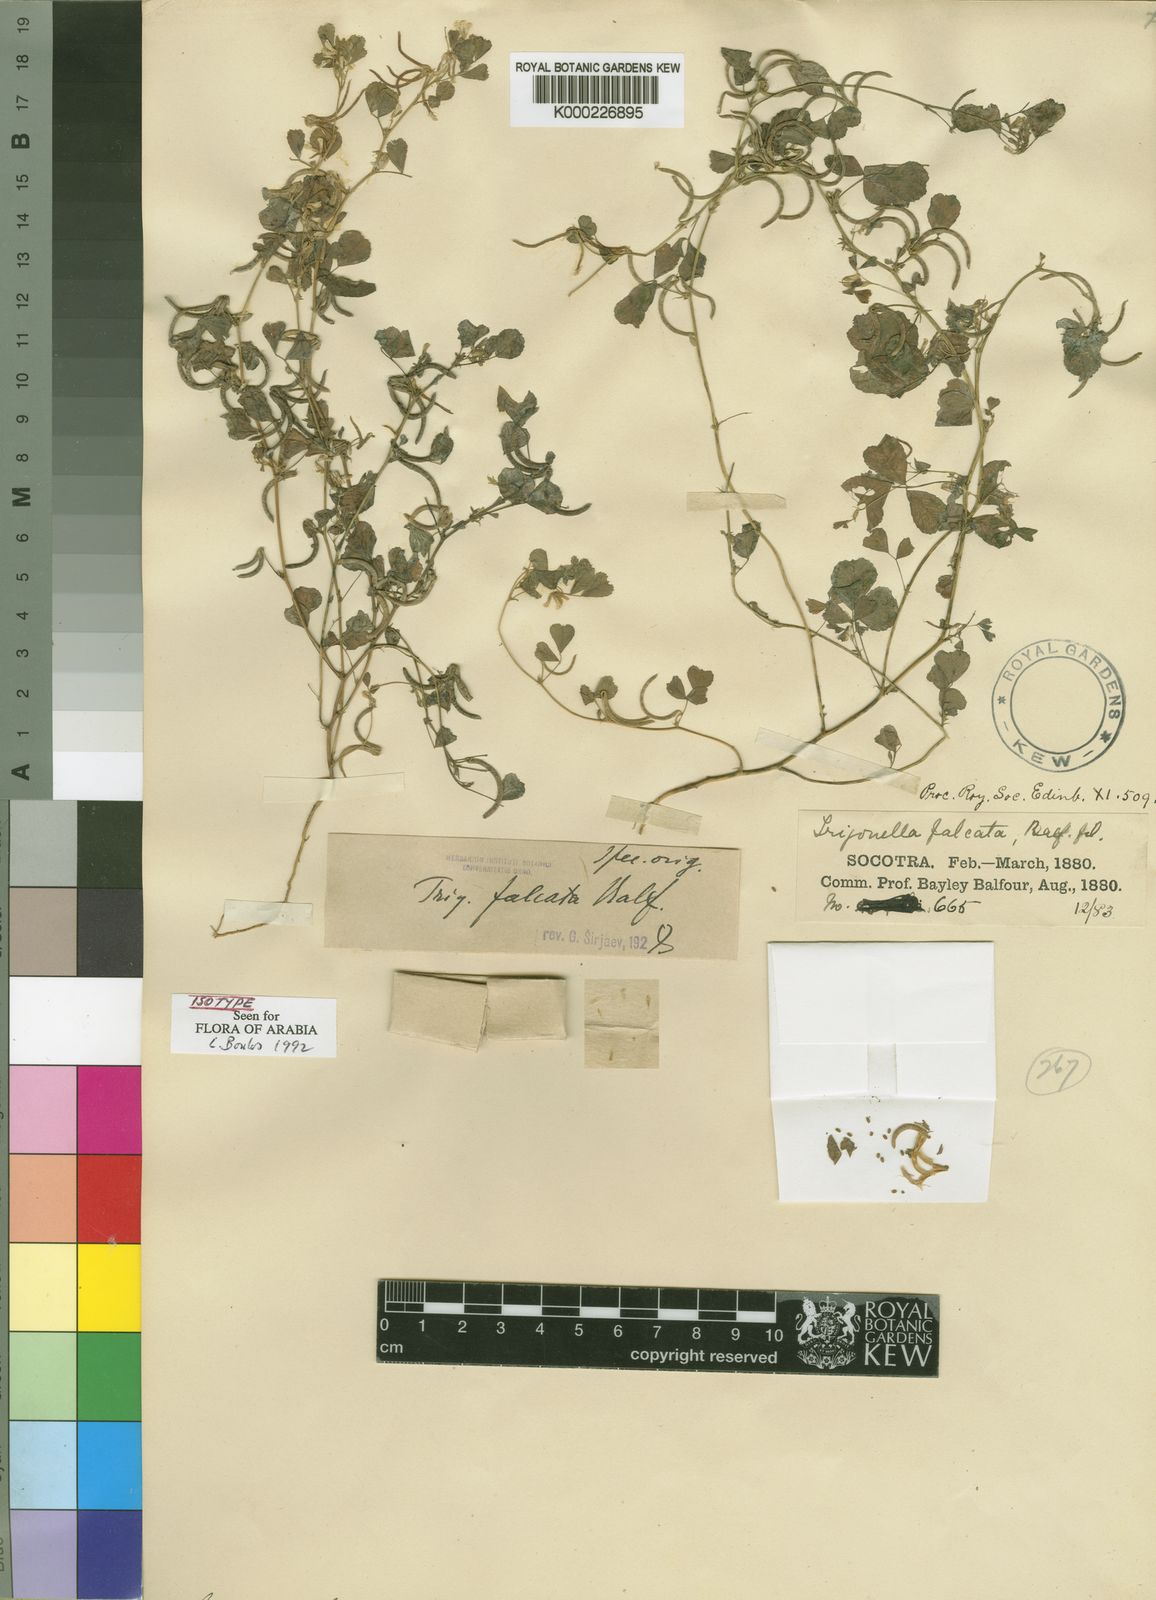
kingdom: Plantae
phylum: Tracheophyta
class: Magnoliopsida
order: Fabales
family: Fabaceae
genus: Trigonella
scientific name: Trigonella falcata
